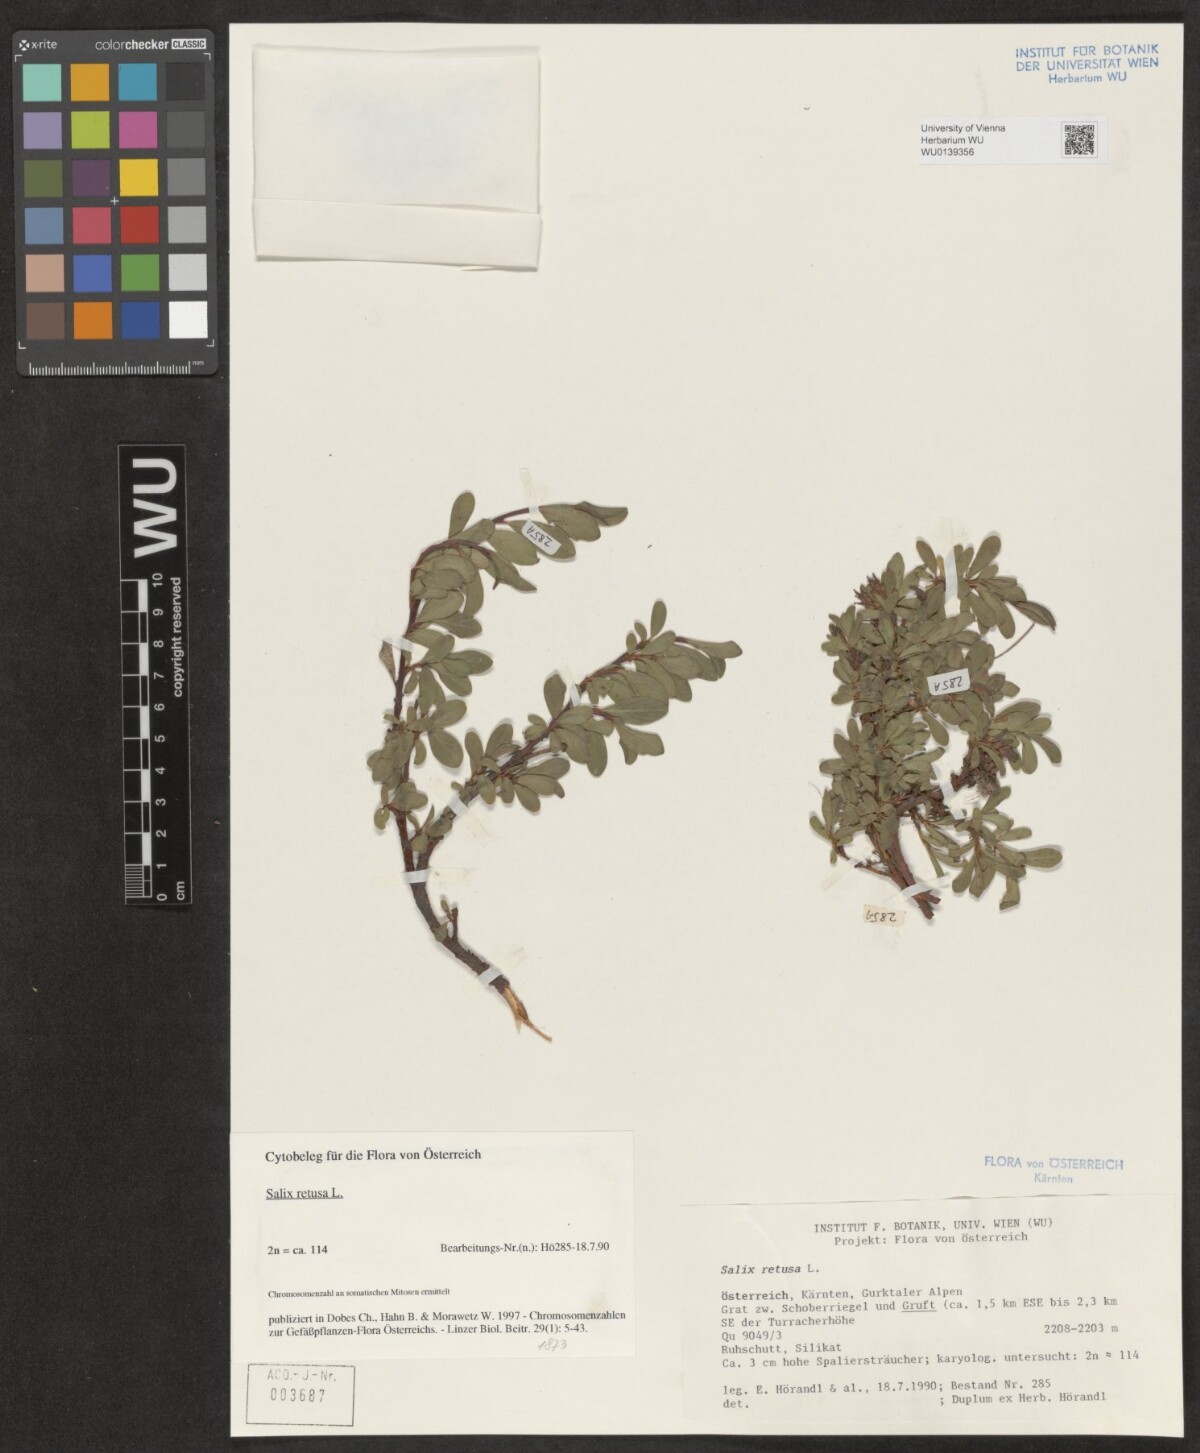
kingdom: Plantae
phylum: Tracheophyta
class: Magnoliopsida
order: Malpighiales
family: Salicaceae
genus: Salix
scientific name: Salix retusa
